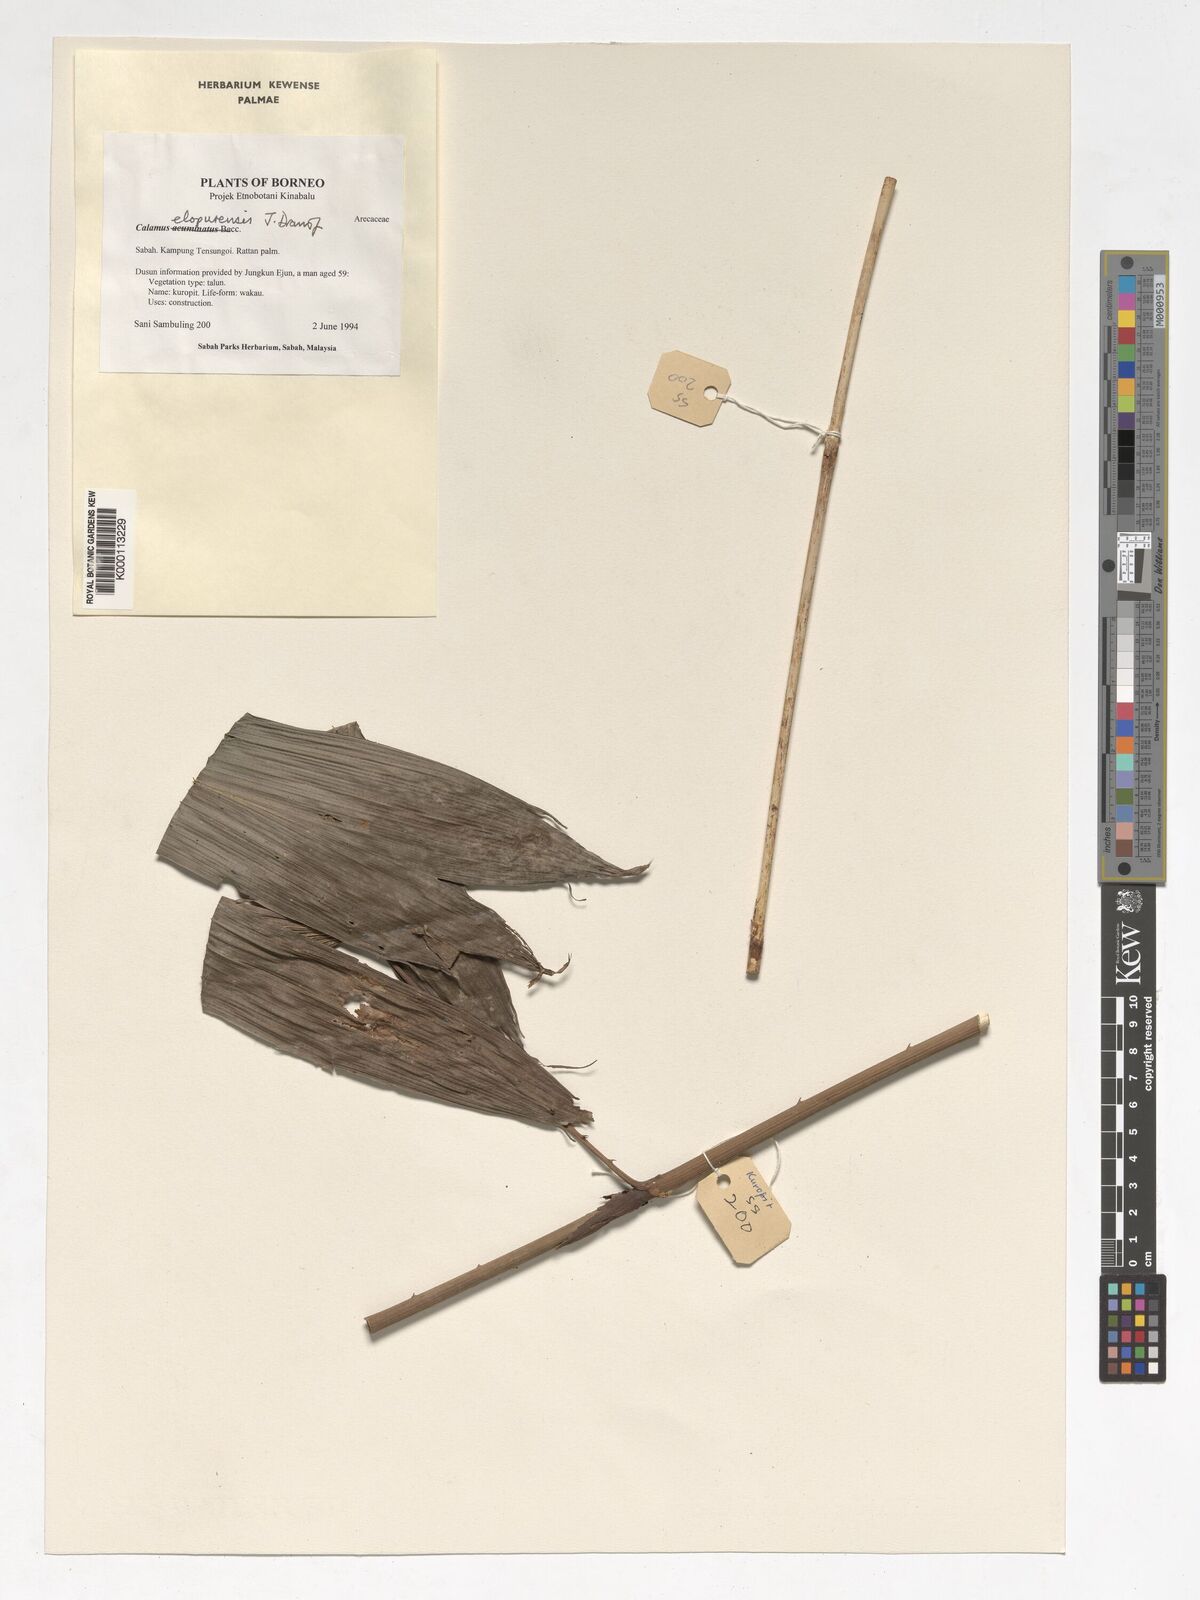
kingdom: Plantae
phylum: Tracheophyta
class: Liliopsida
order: Arecales
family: Arecaceae
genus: Calamus
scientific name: Calamus javensis
